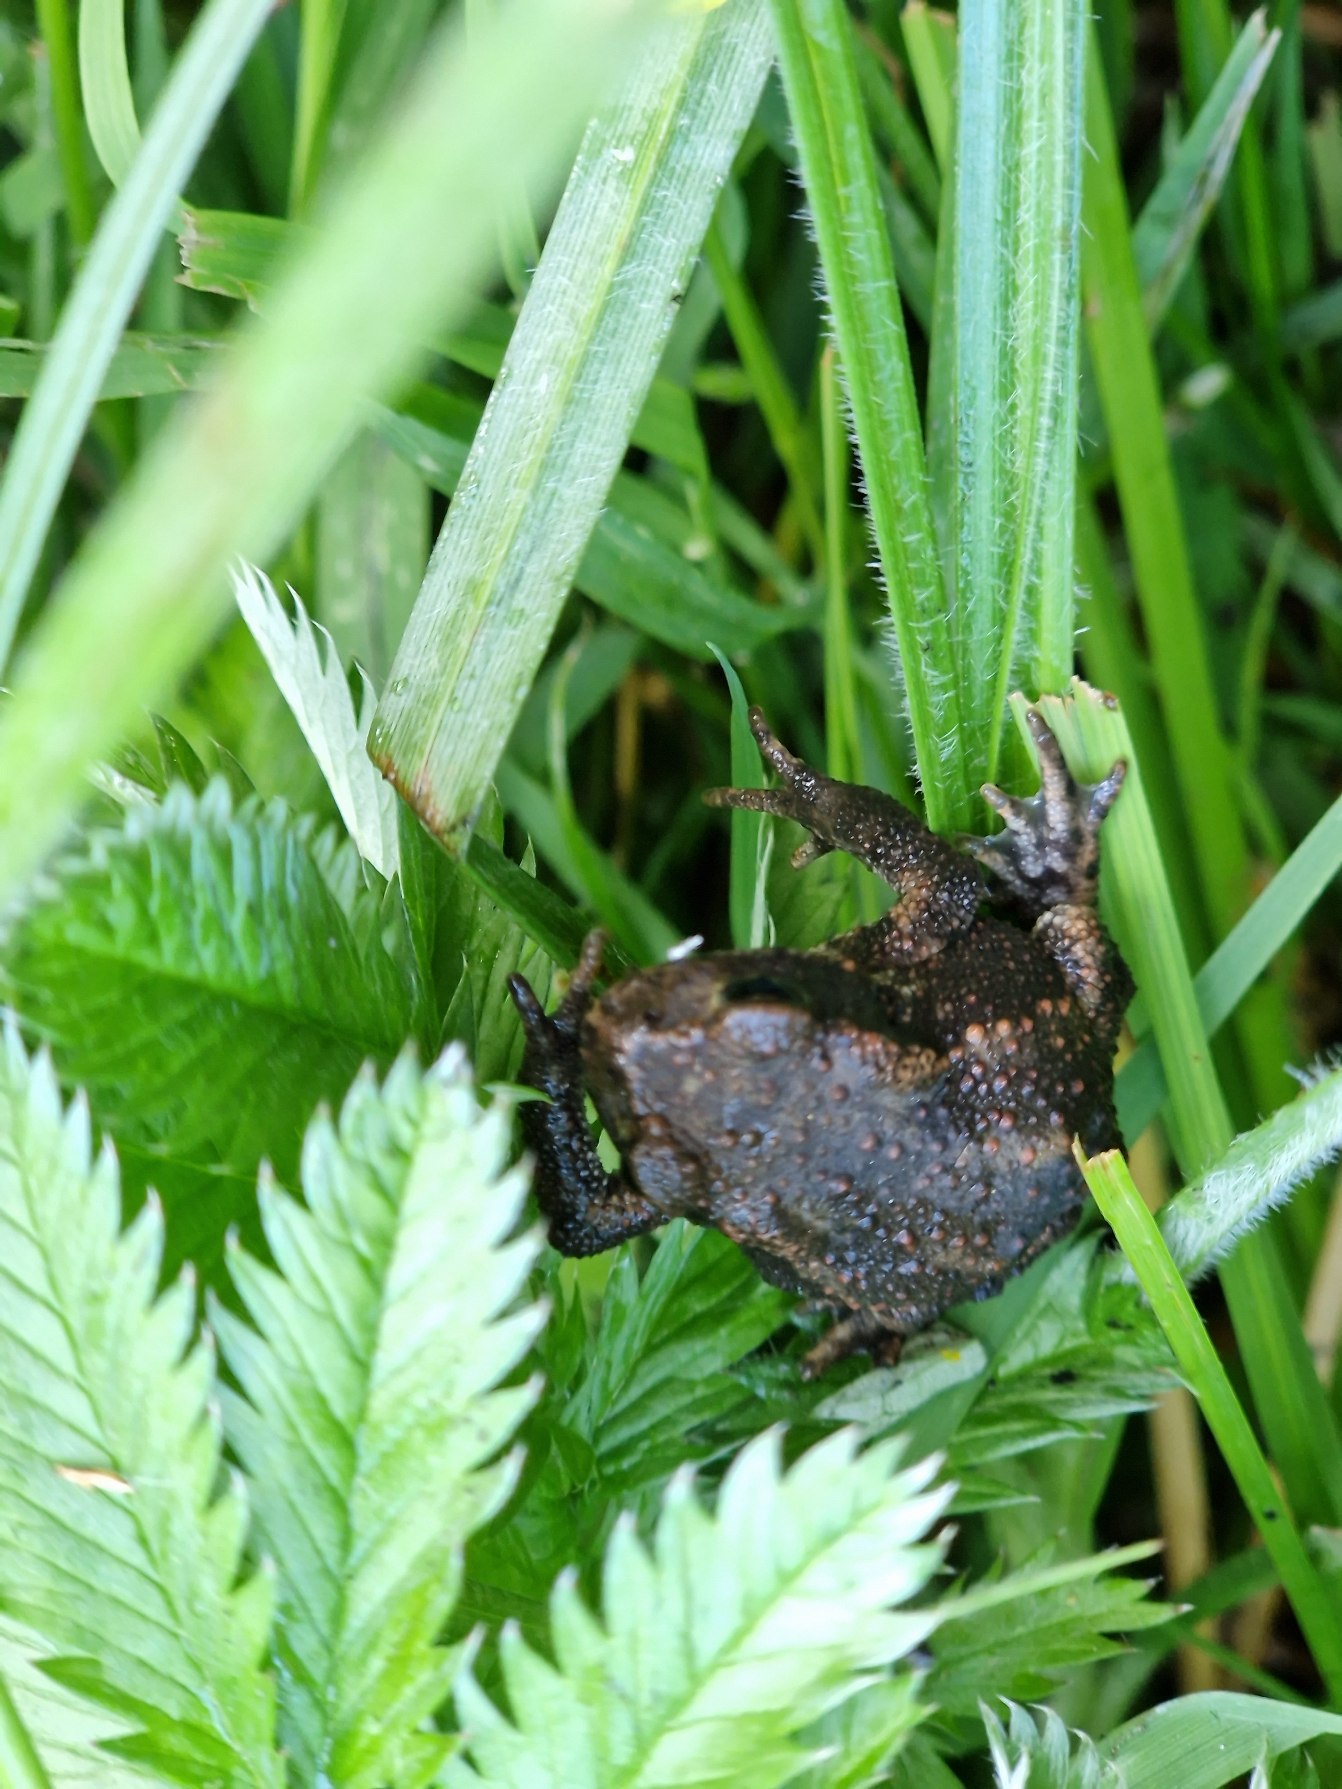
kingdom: Animalia
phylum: Chordata
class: Amphibia
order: Anura
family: Bufonidae
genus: Bufo
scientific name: Bufo bufo
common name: Skrubtudse
